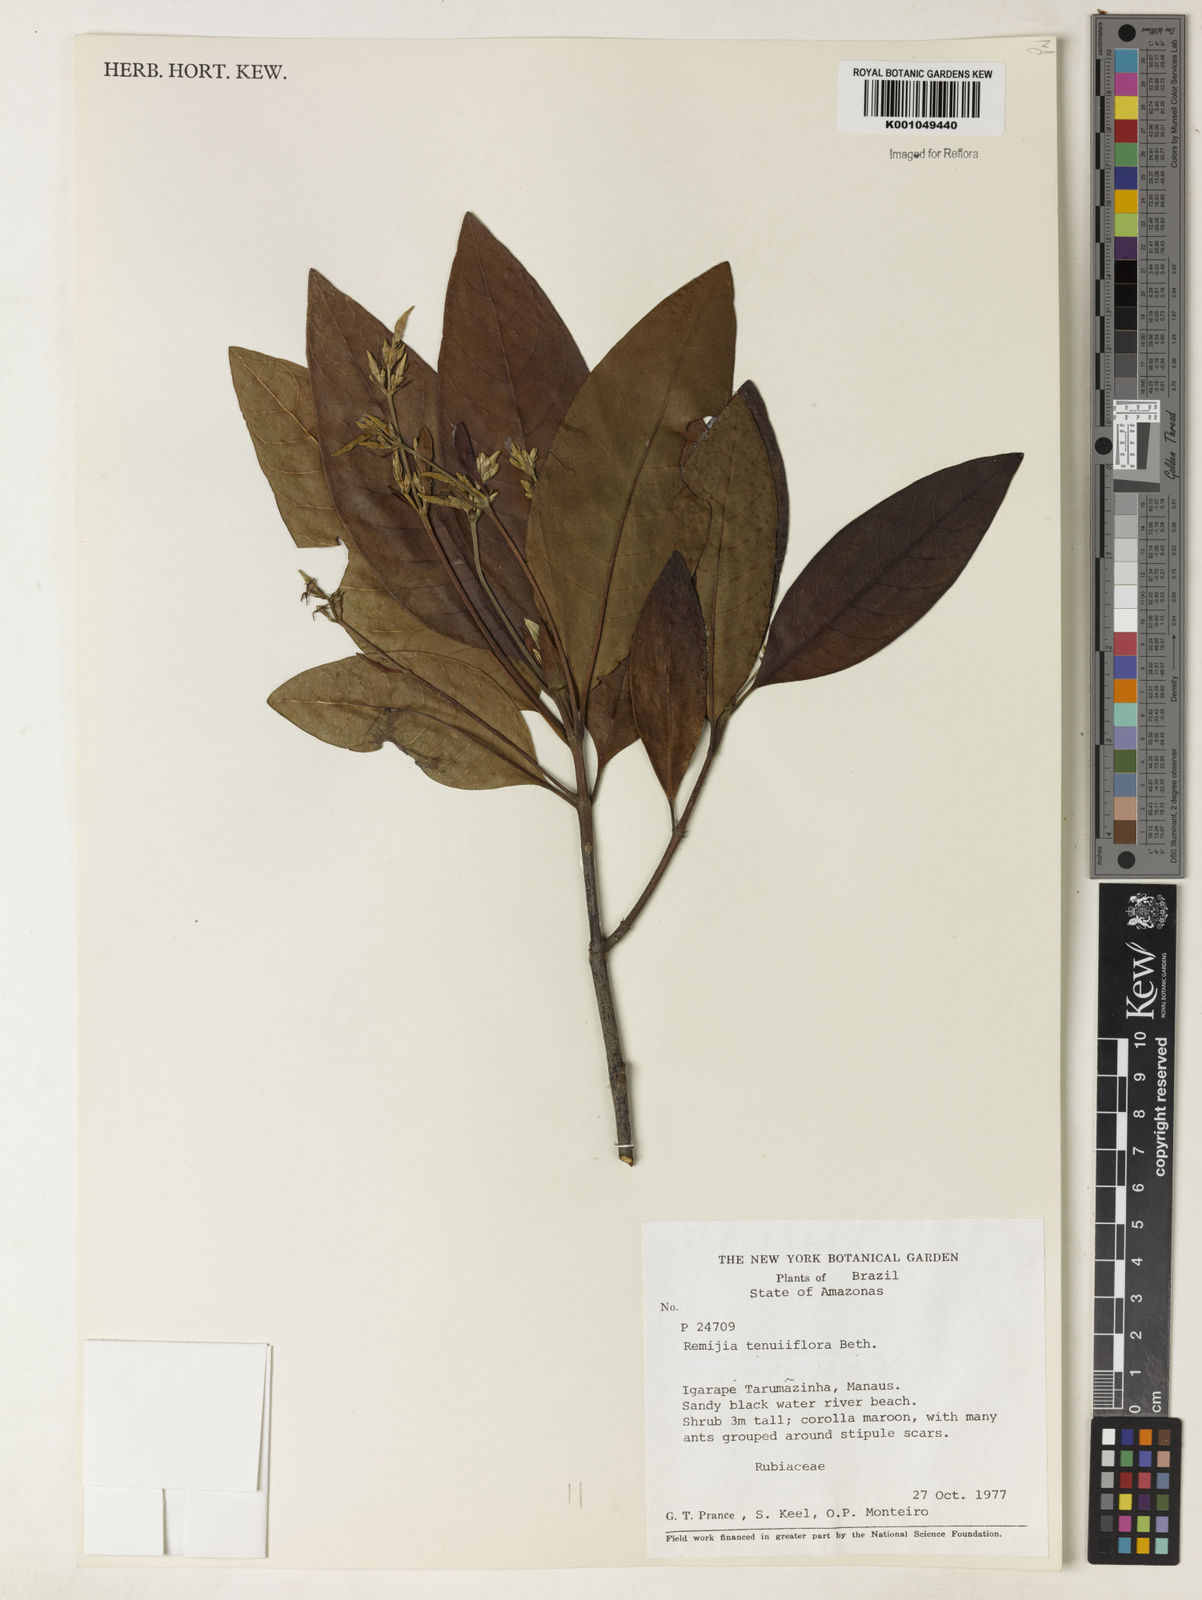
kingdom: Plantae
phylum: Tracheophyta
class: Magnoliopsida
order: Gentianales
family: Rubiaceae
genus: Remijia
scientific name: Remijia tenuiflora
